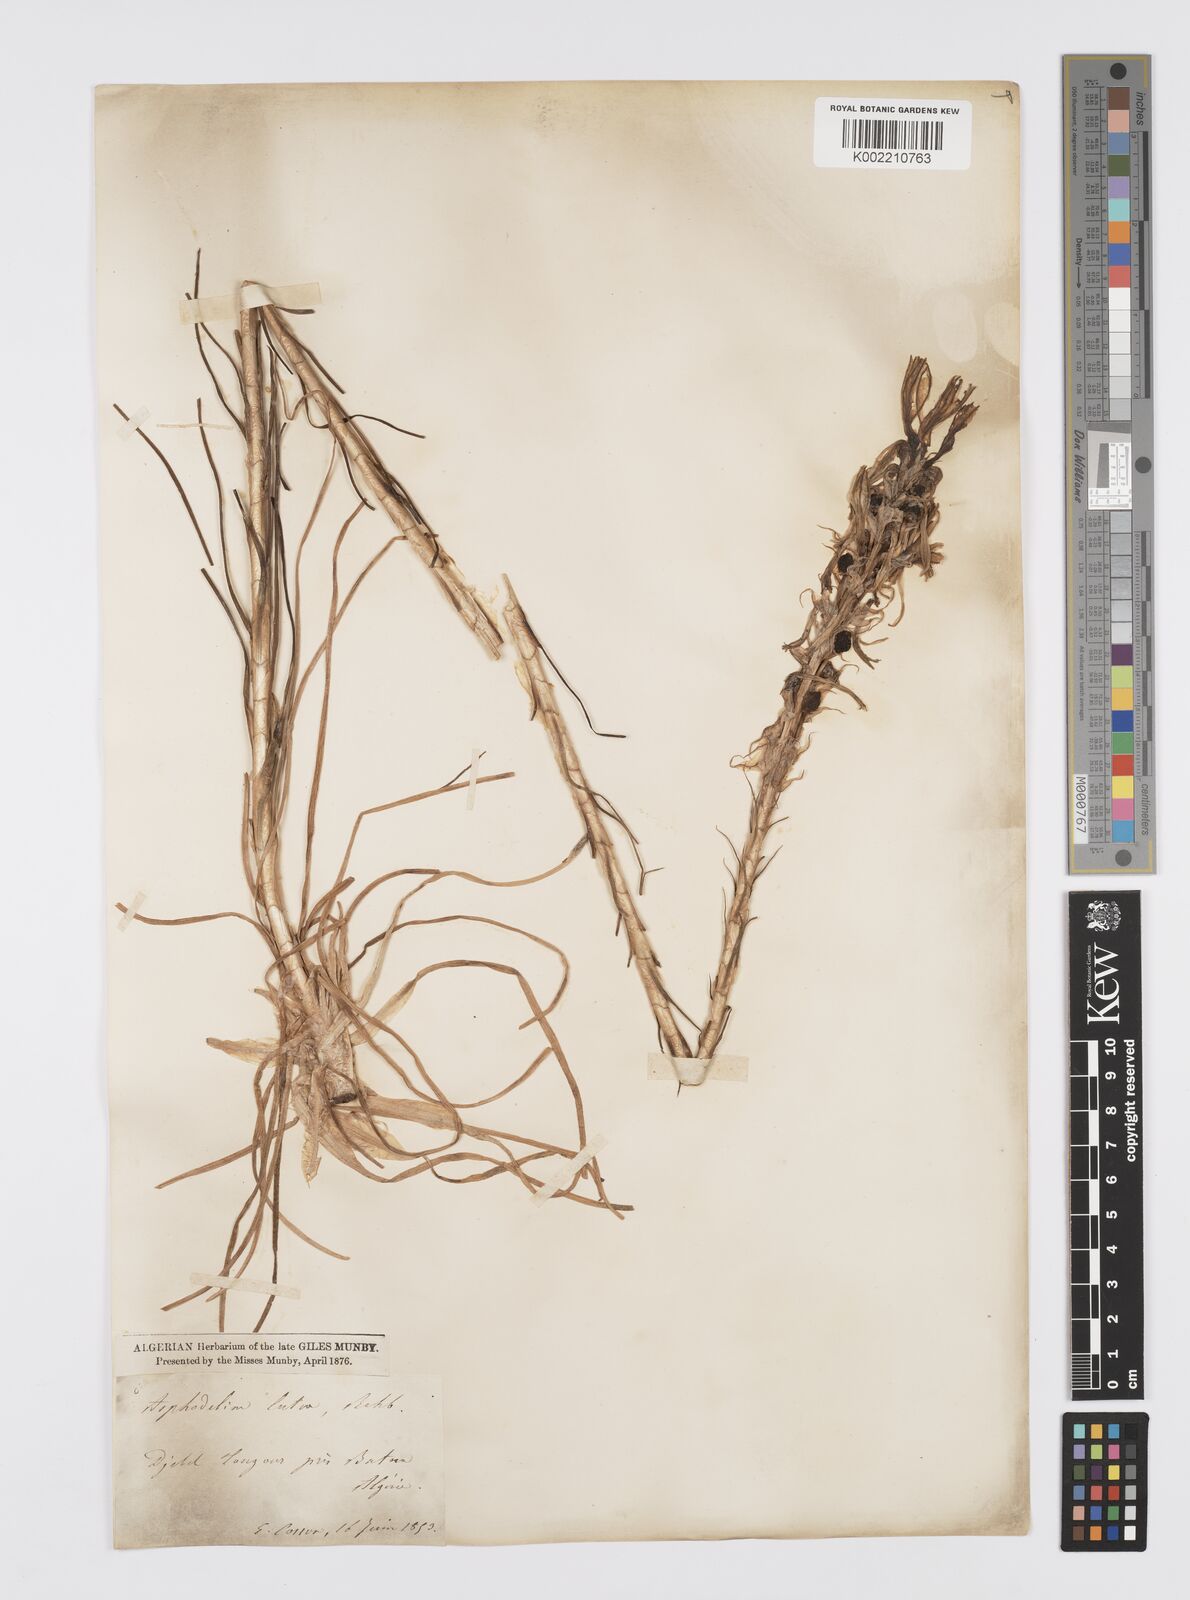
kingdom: Plantae
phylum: Tracheophyta
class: Liliopsida
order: Asparagales
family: Asphodelaceae
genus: Asphodeline
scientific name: Asphodeline lutea
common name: Yellow asphodel
